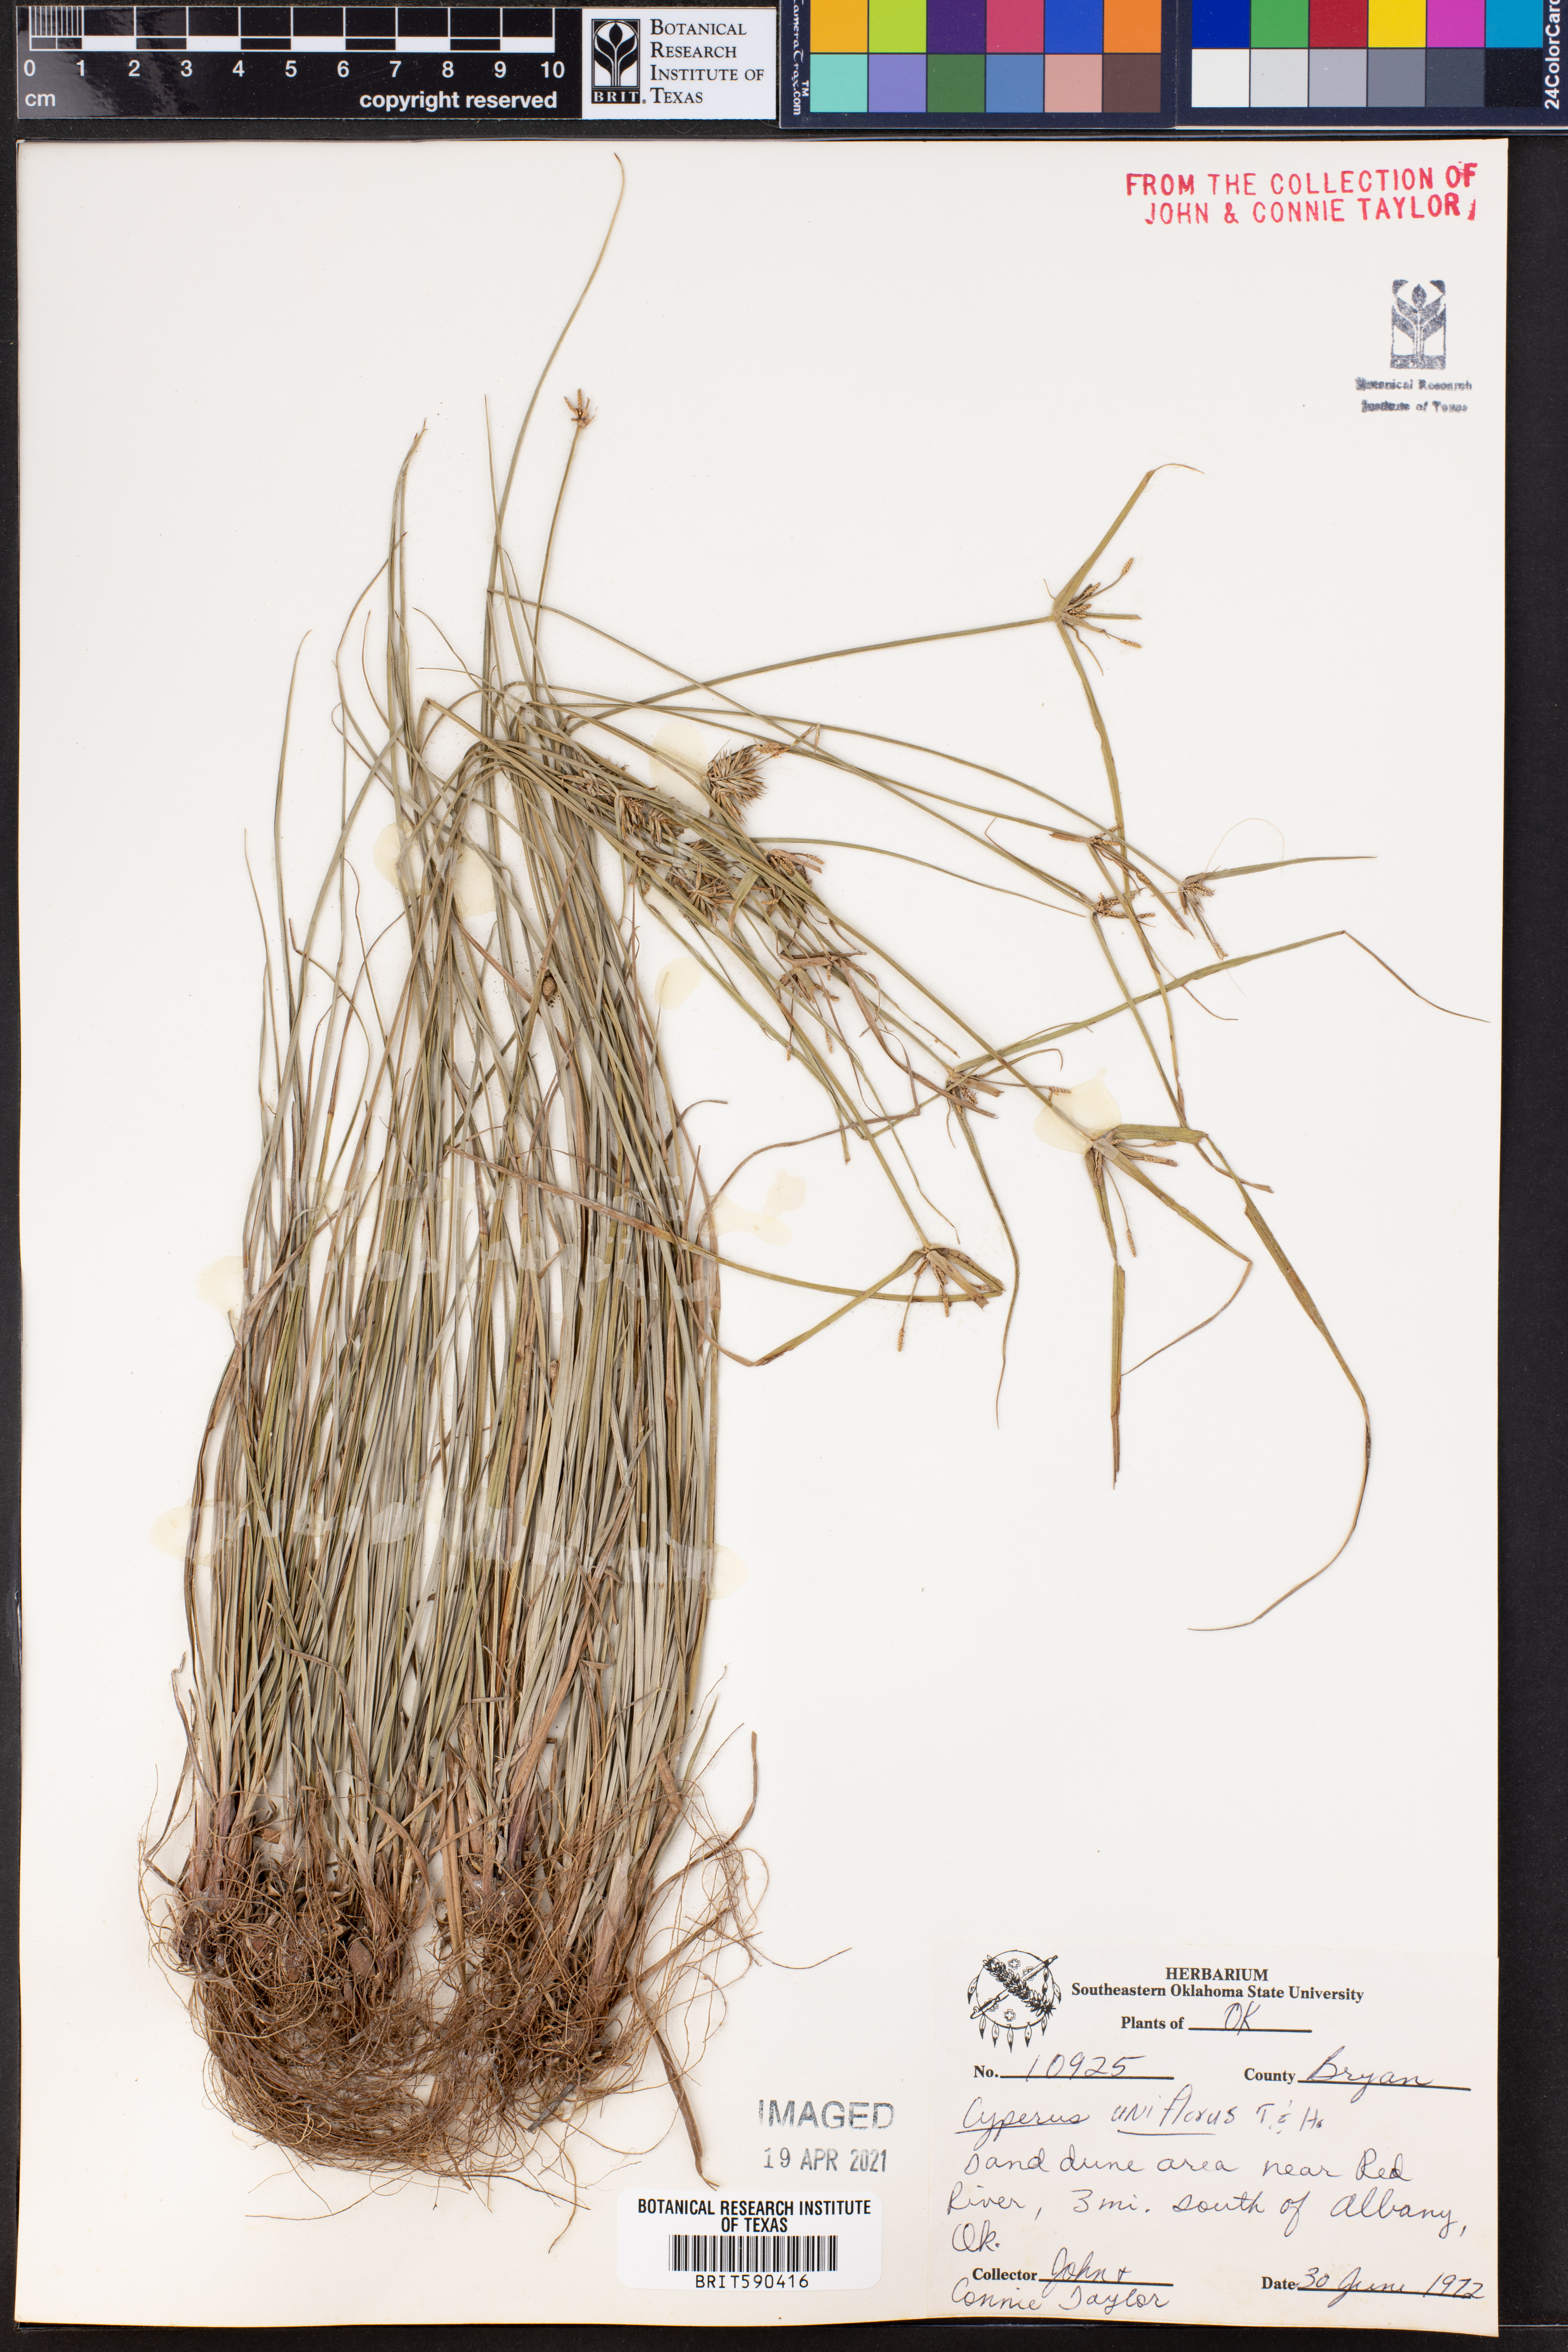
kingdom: Plantae
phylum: Tracheophyta
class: Liliopsida
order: Poales
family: Cyperaceae
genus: Cyperus
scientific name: Cyperus retroflexus
